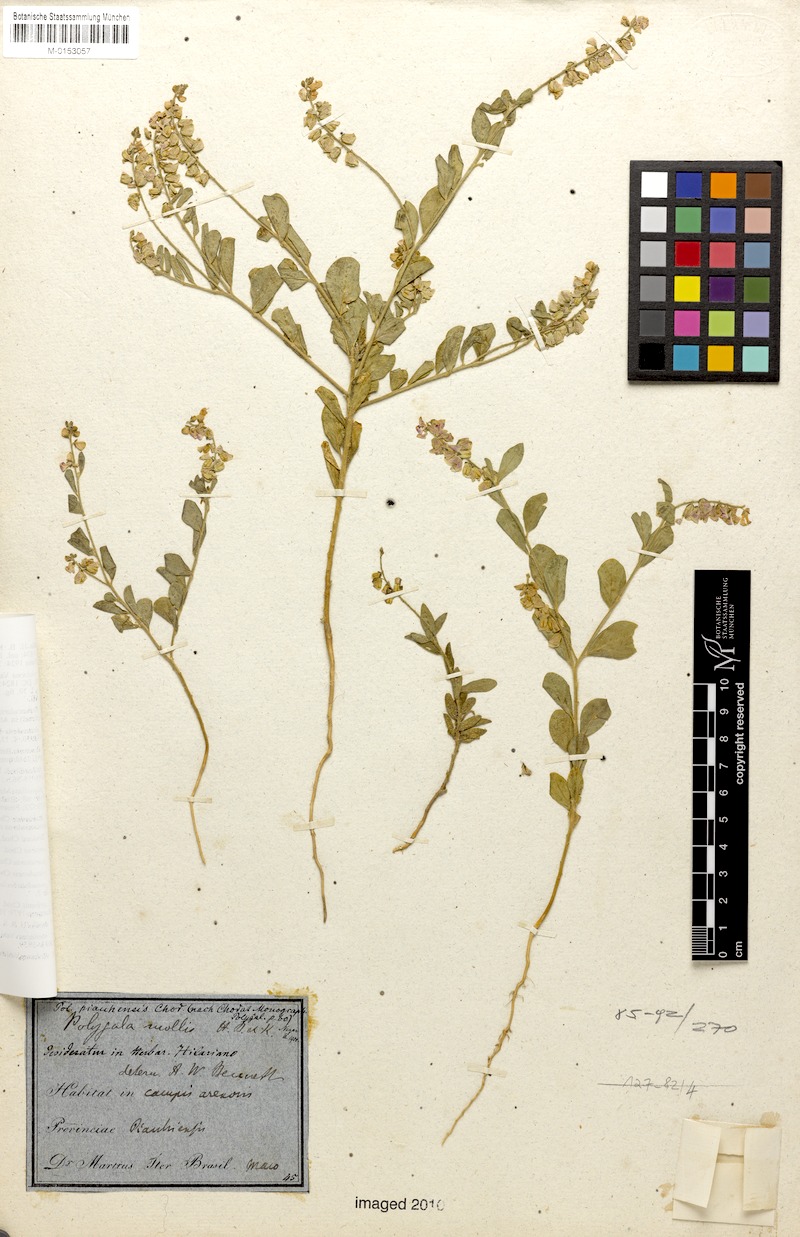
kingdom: Plantae
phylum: Tracheophyta
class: Magnoliopsida
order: Fabales
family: Polygalaceae
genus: Asemeia
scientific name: Asemeia ovata
